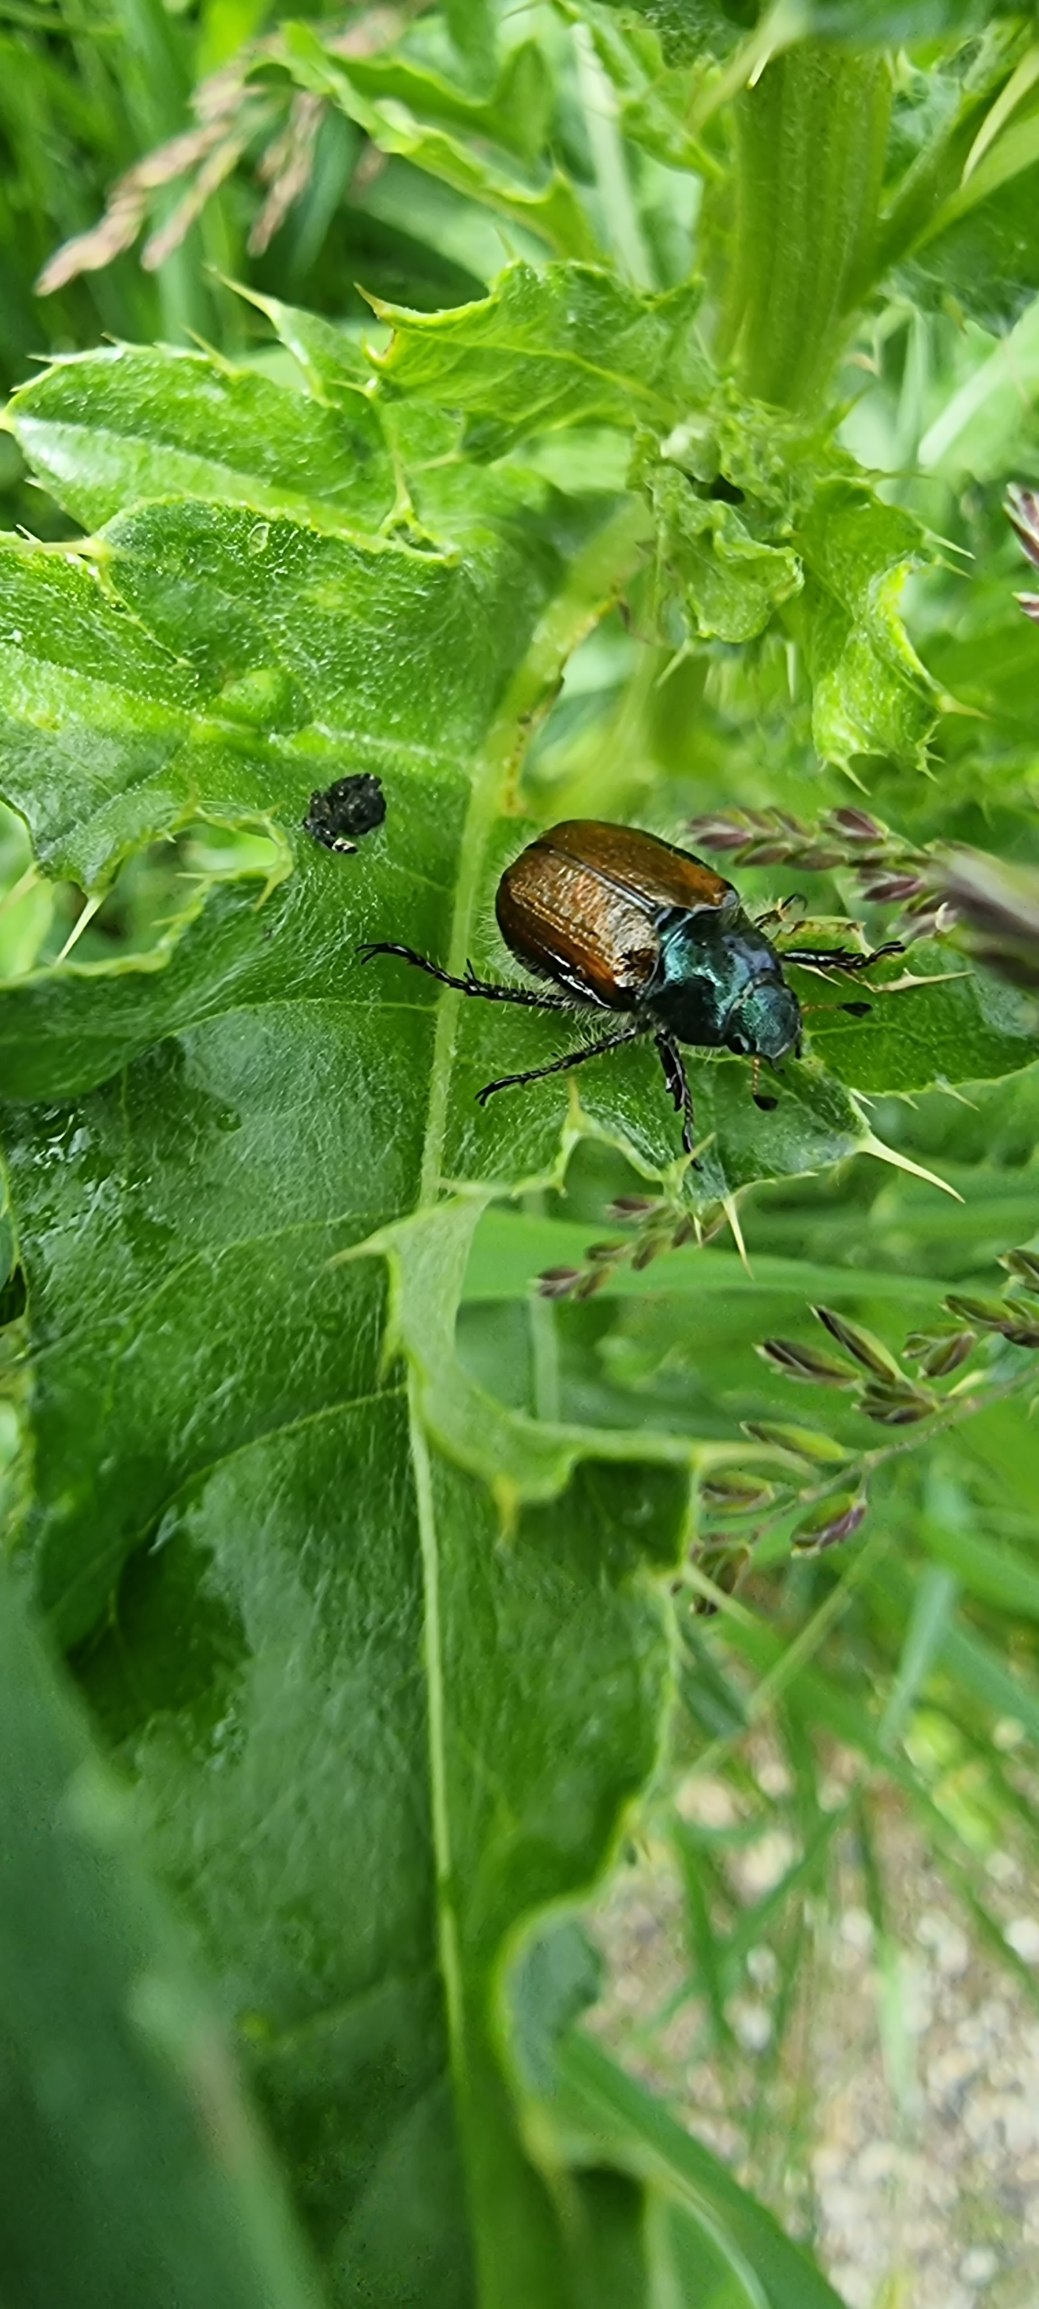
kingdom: Animalia
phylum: Arthropoda
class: Insecta
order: Coleoptera
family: Scarabaeidae
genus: Phyllopertha
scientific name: Phyllopertha horticola
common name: Gåsebille
